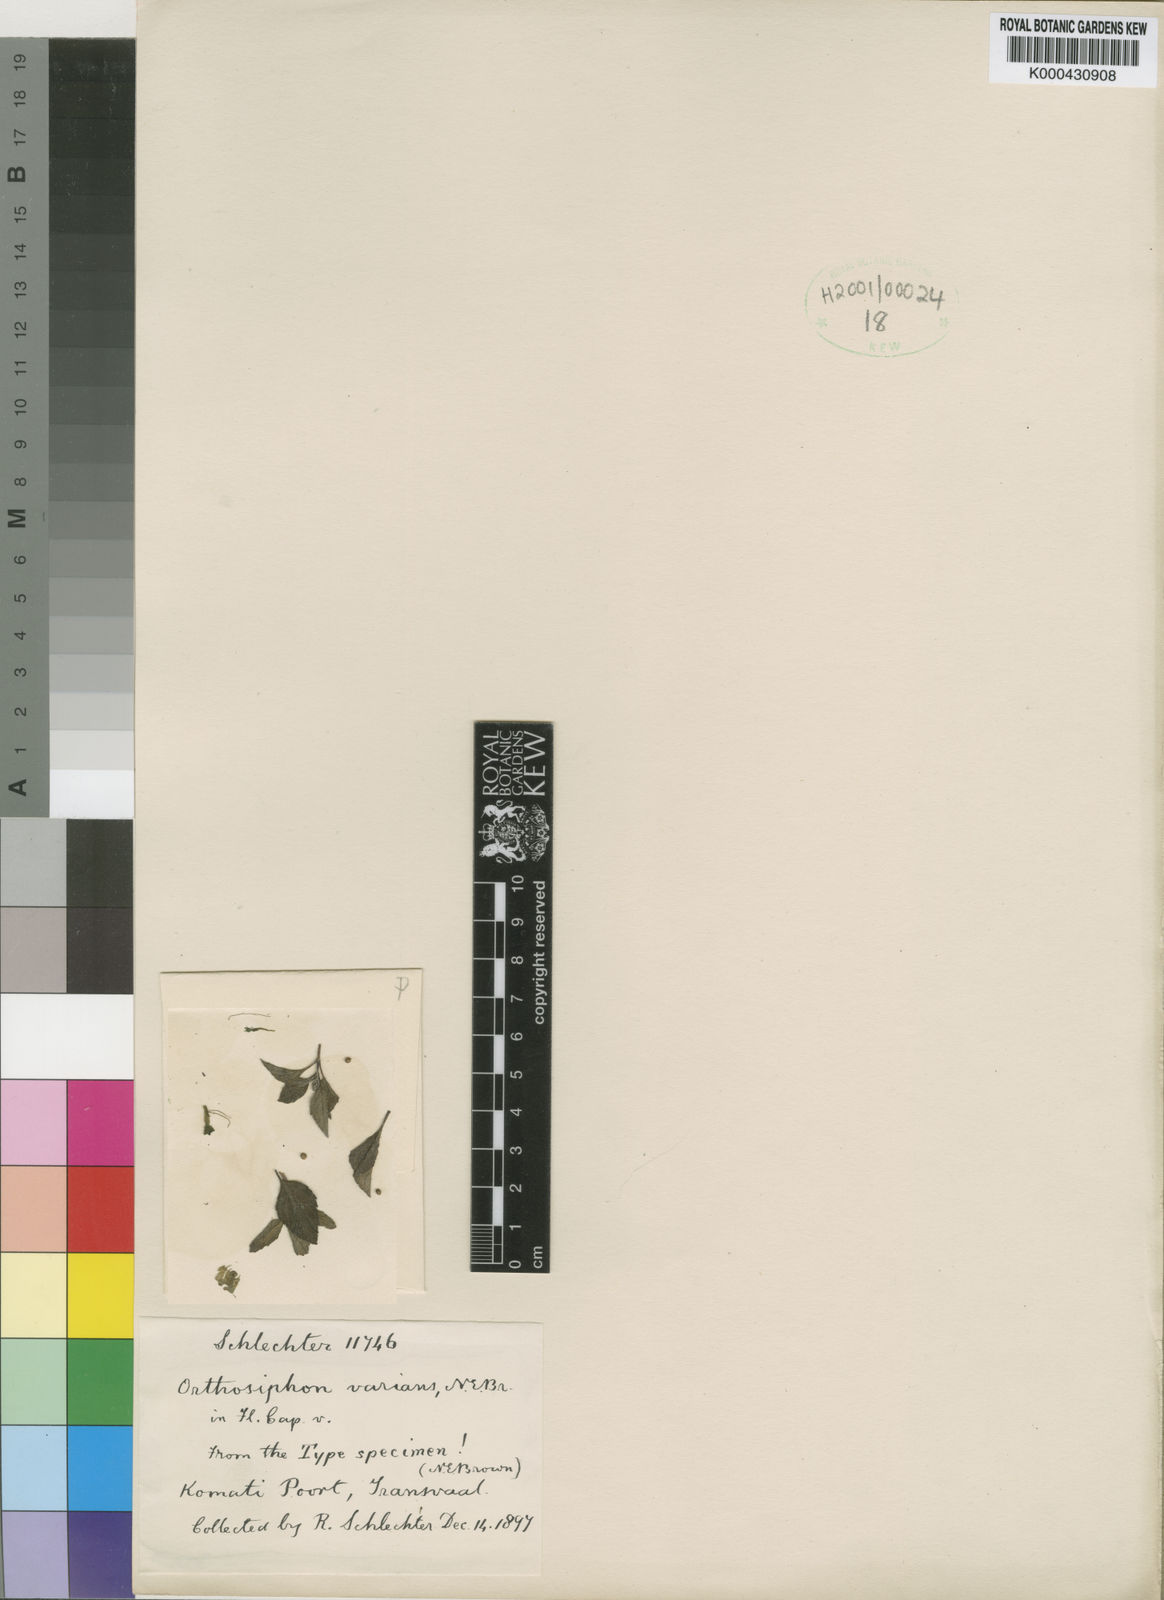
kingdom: Plantae
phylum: Tracheophyta
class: Magnoliopsida
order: Lamiales
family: Lamiaceae
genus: Syncolostemon
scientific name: Syncolostemon canescens
